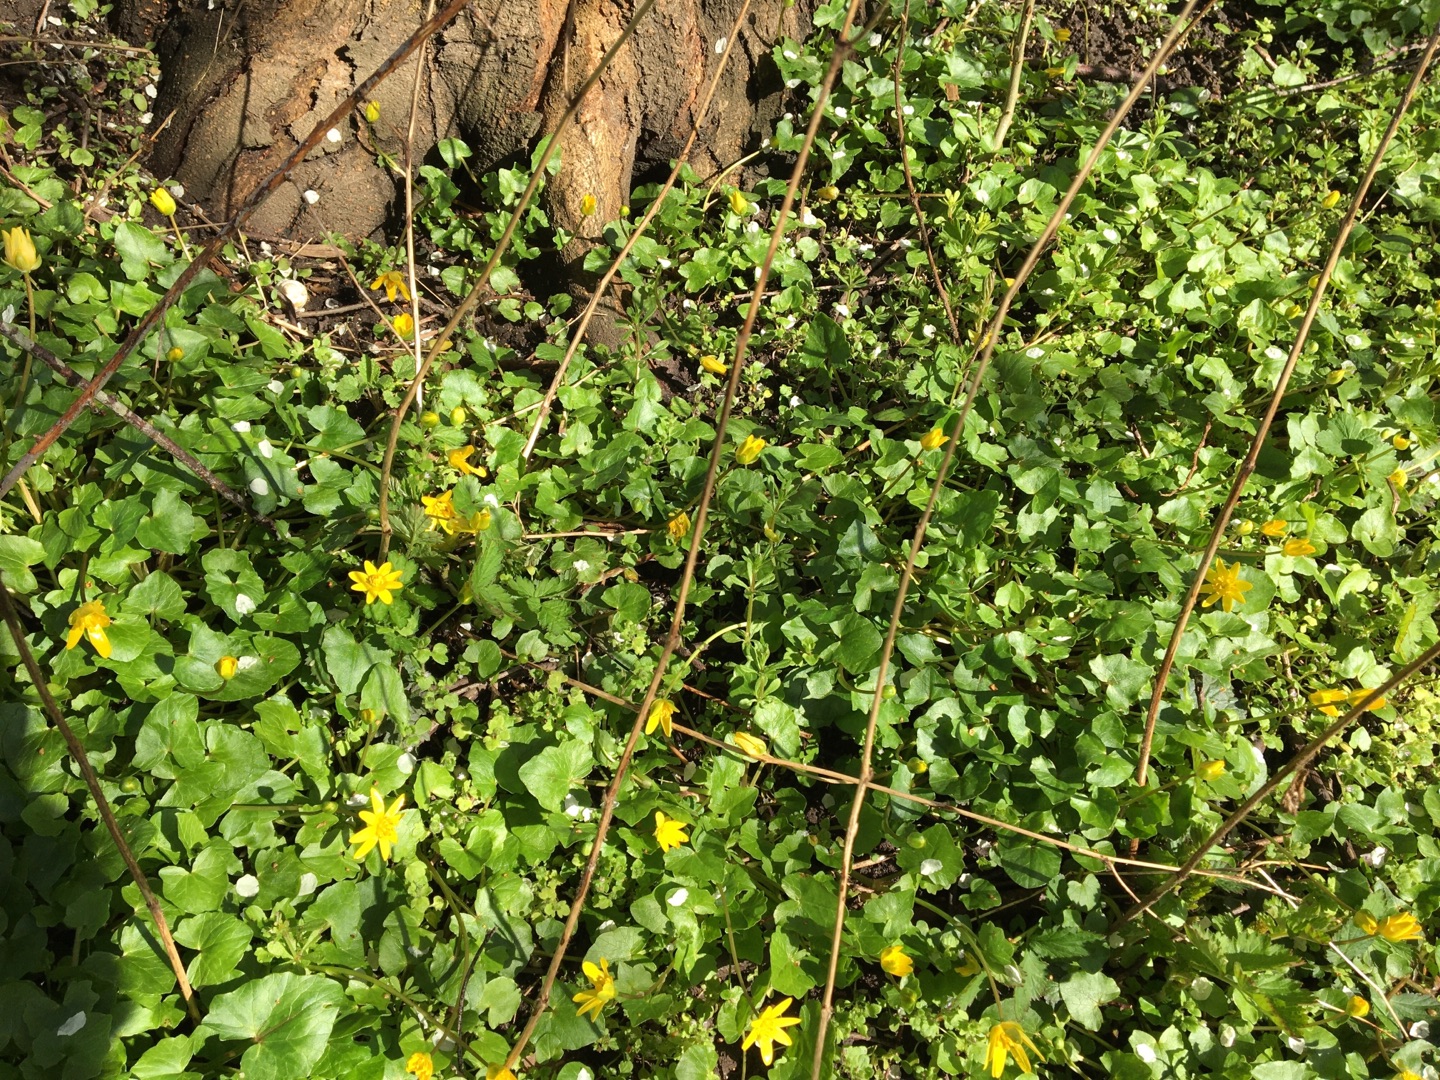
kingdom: Plantae
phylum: Tracheophyta
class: Magnoliopsida
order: Ranunculales
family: Ranunculaceae
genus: Ficaria
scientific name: Ficaria verna
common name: Vorterod
